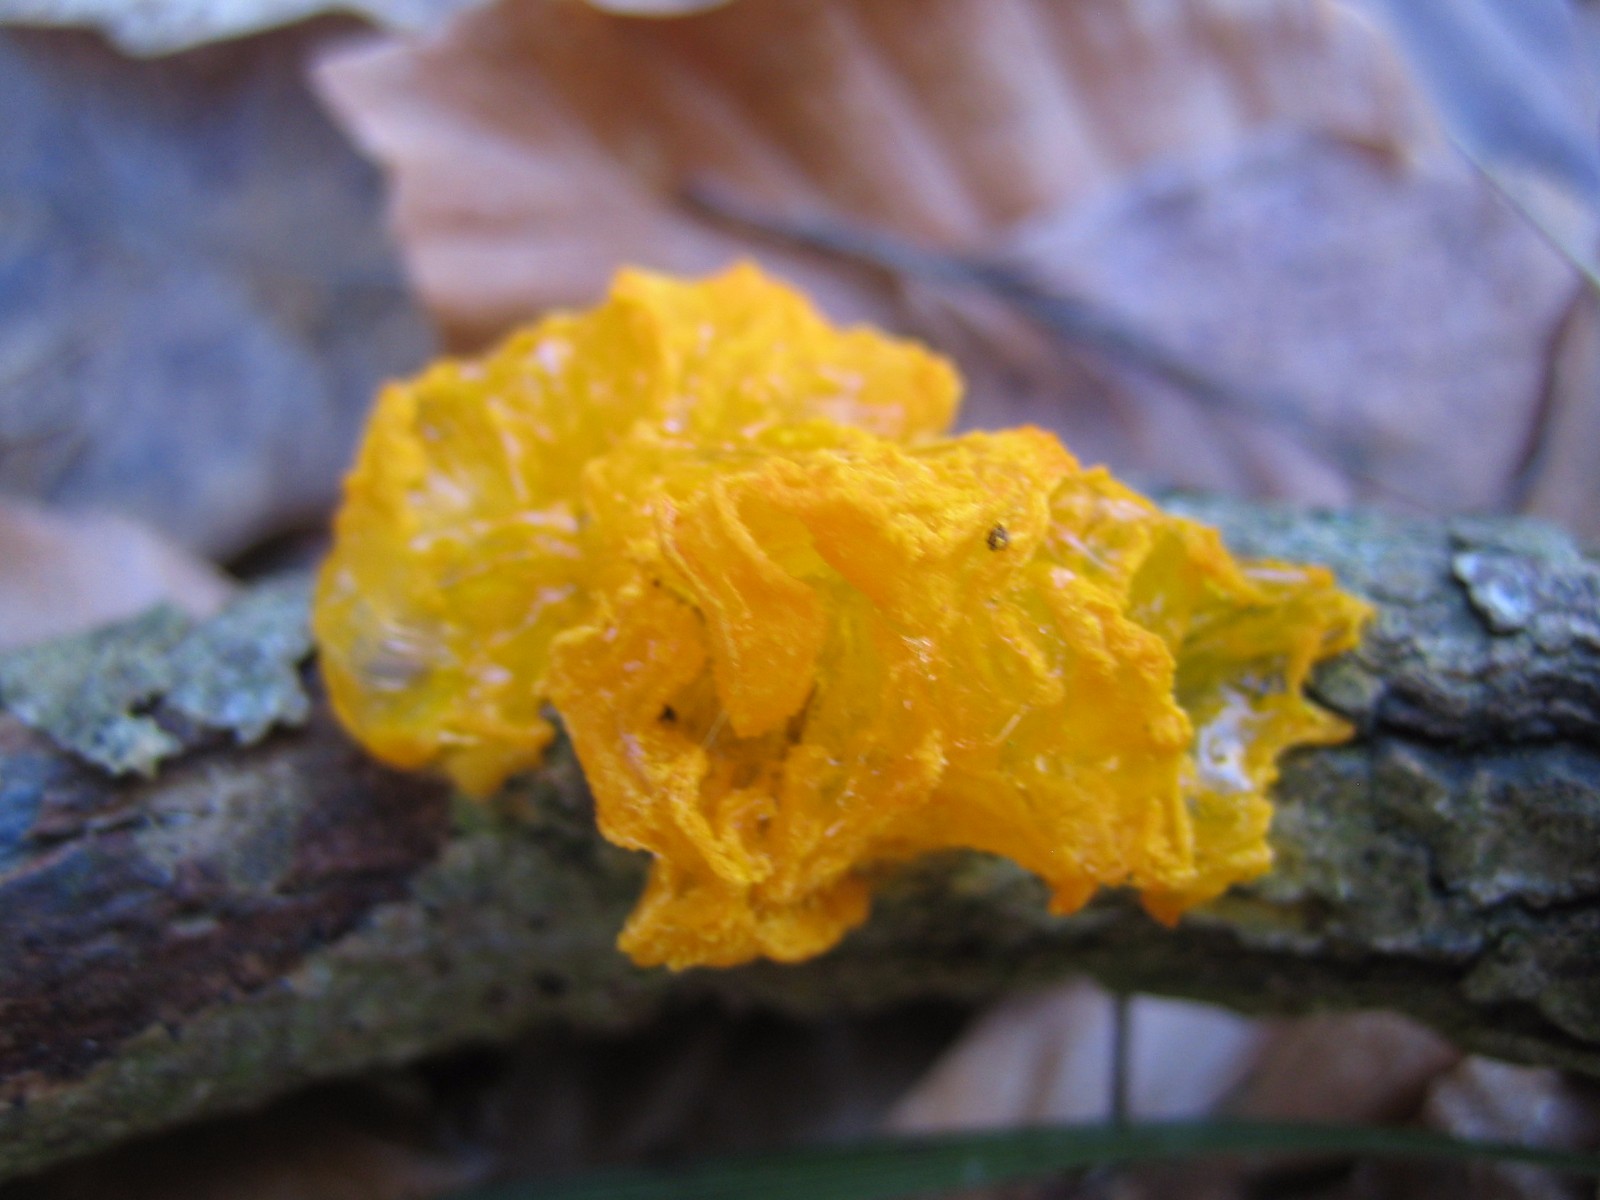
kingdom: Fungi
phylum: Basidiomycota
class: Tremellomycetes
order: Tremellales
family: Tremellaceae
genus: Tremella
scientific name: Tremella mesenterica
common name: gul bævresvamp
